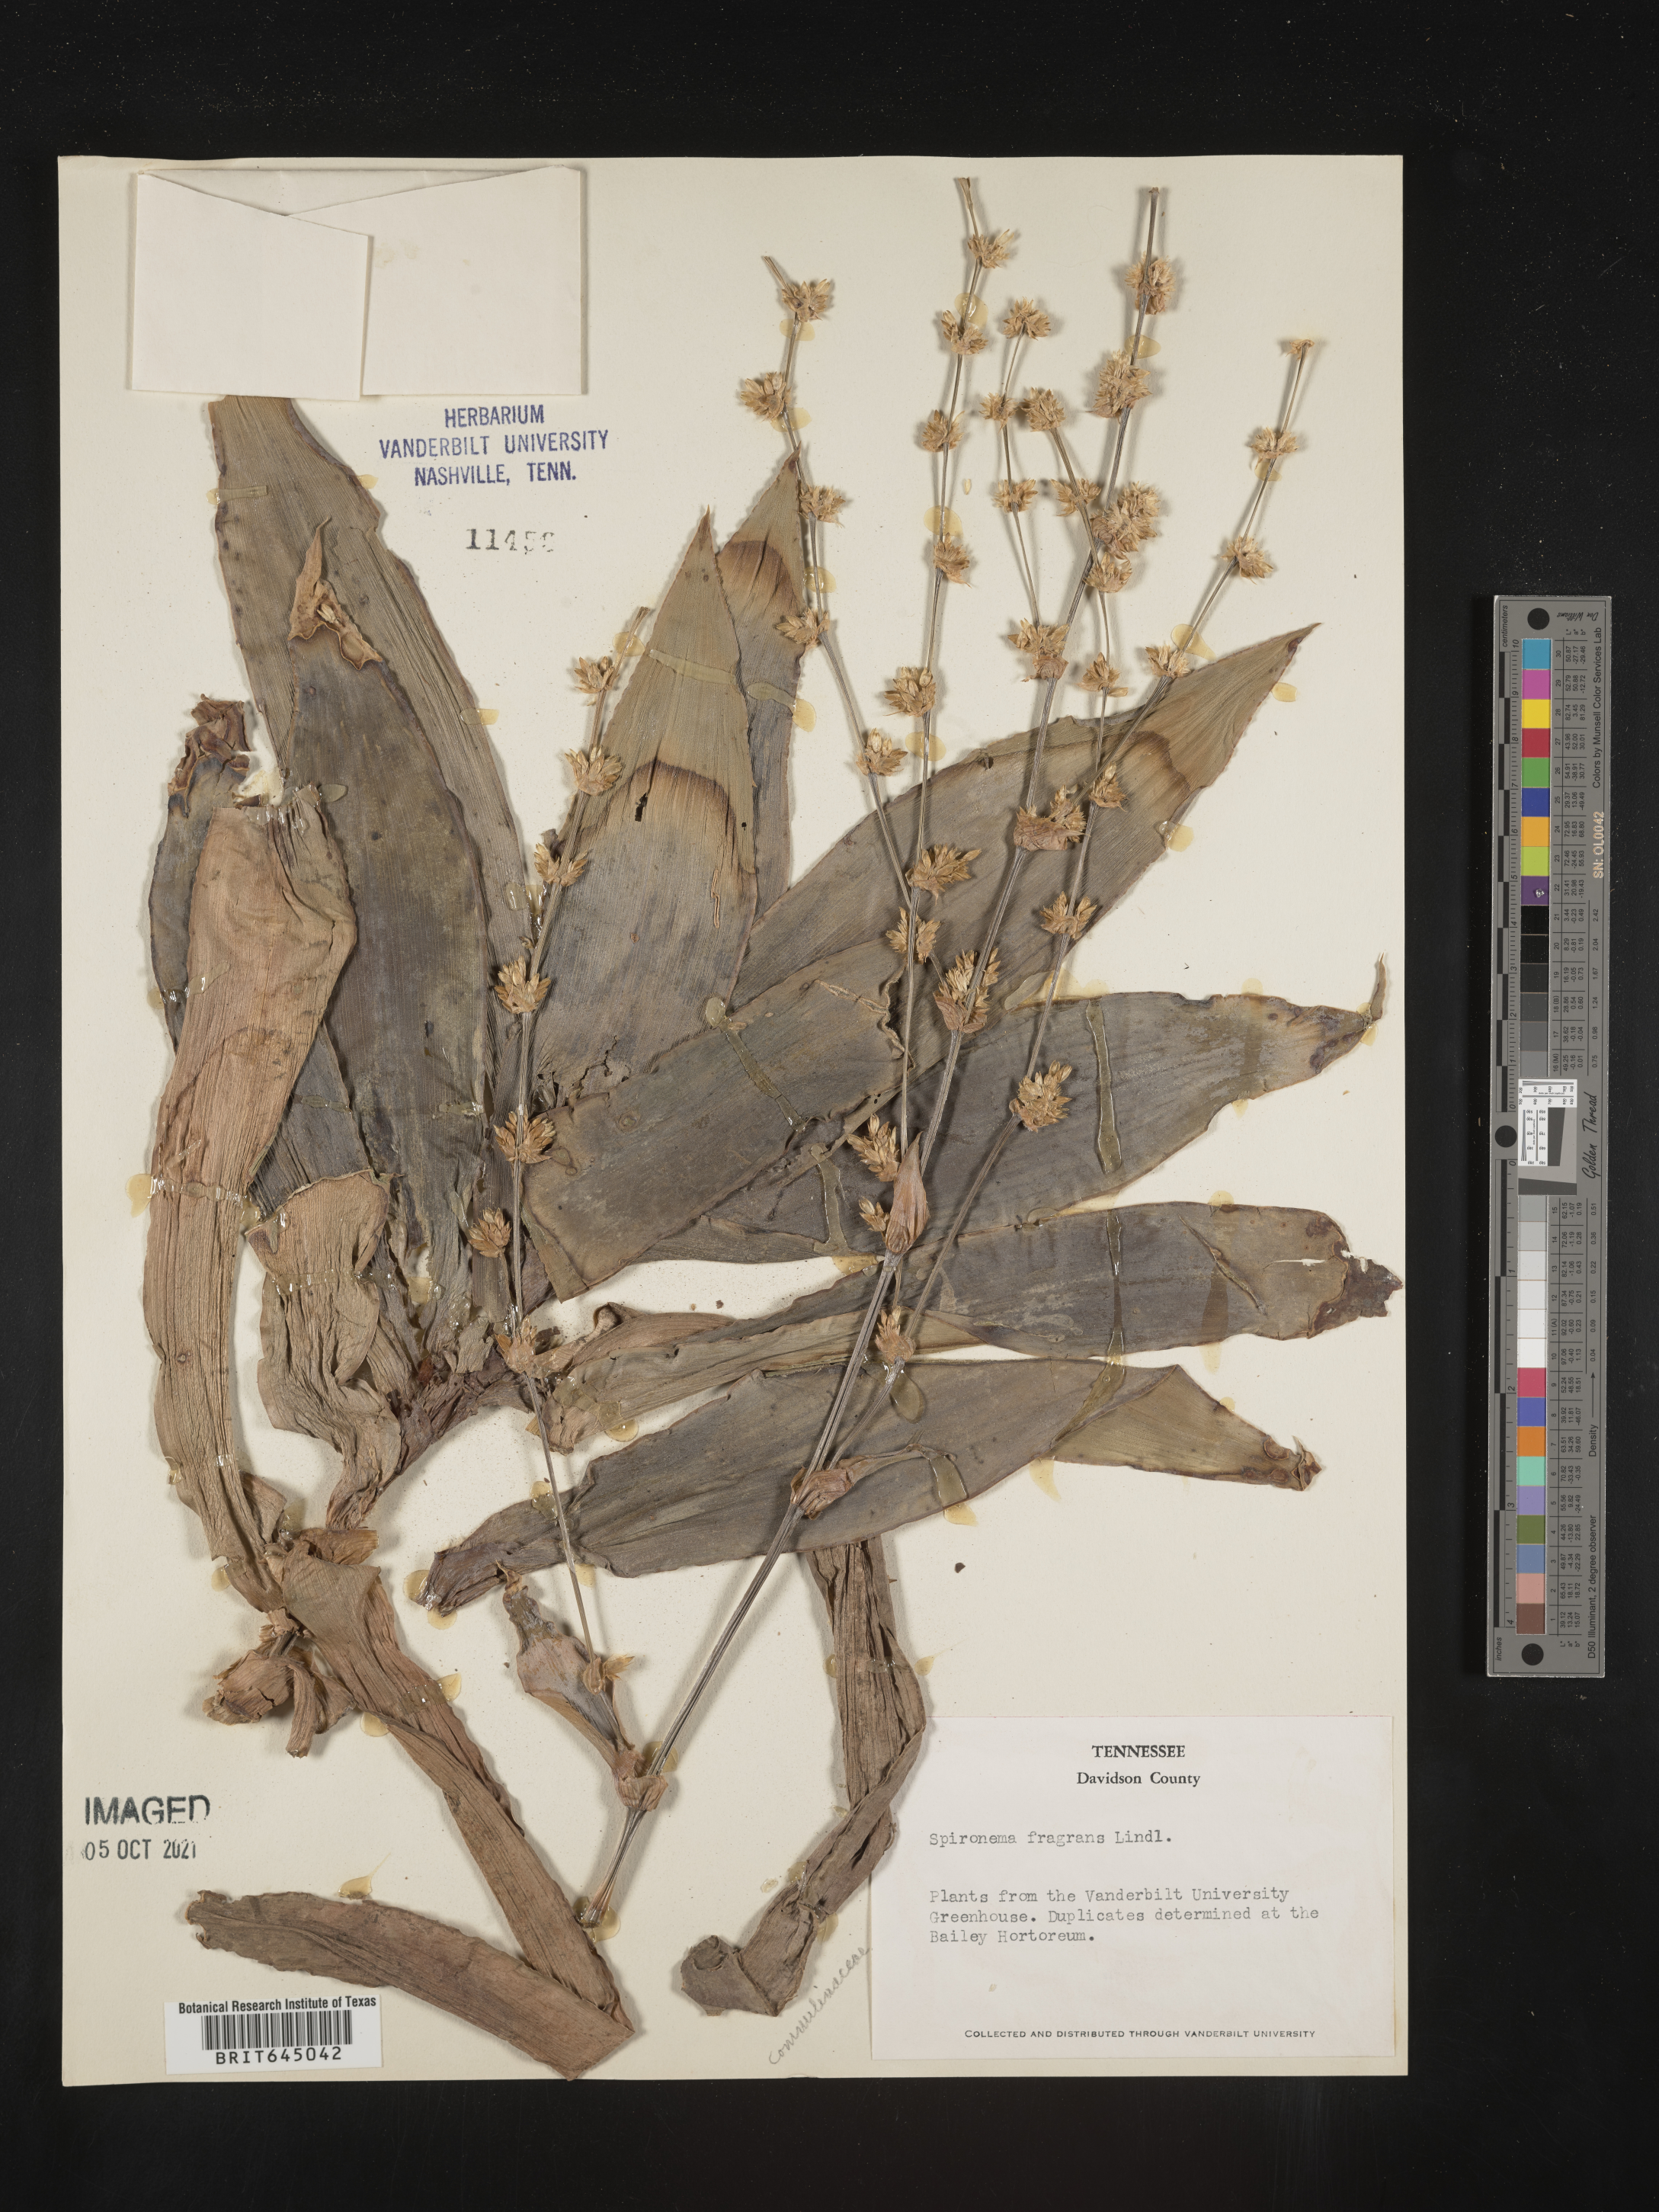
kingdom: Plantae
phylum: Tracheophyta
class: Liliopsida
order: Commelinales
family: Commelinaceae
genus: Callisia
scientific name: Callisia fragrans
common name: Basketplant
